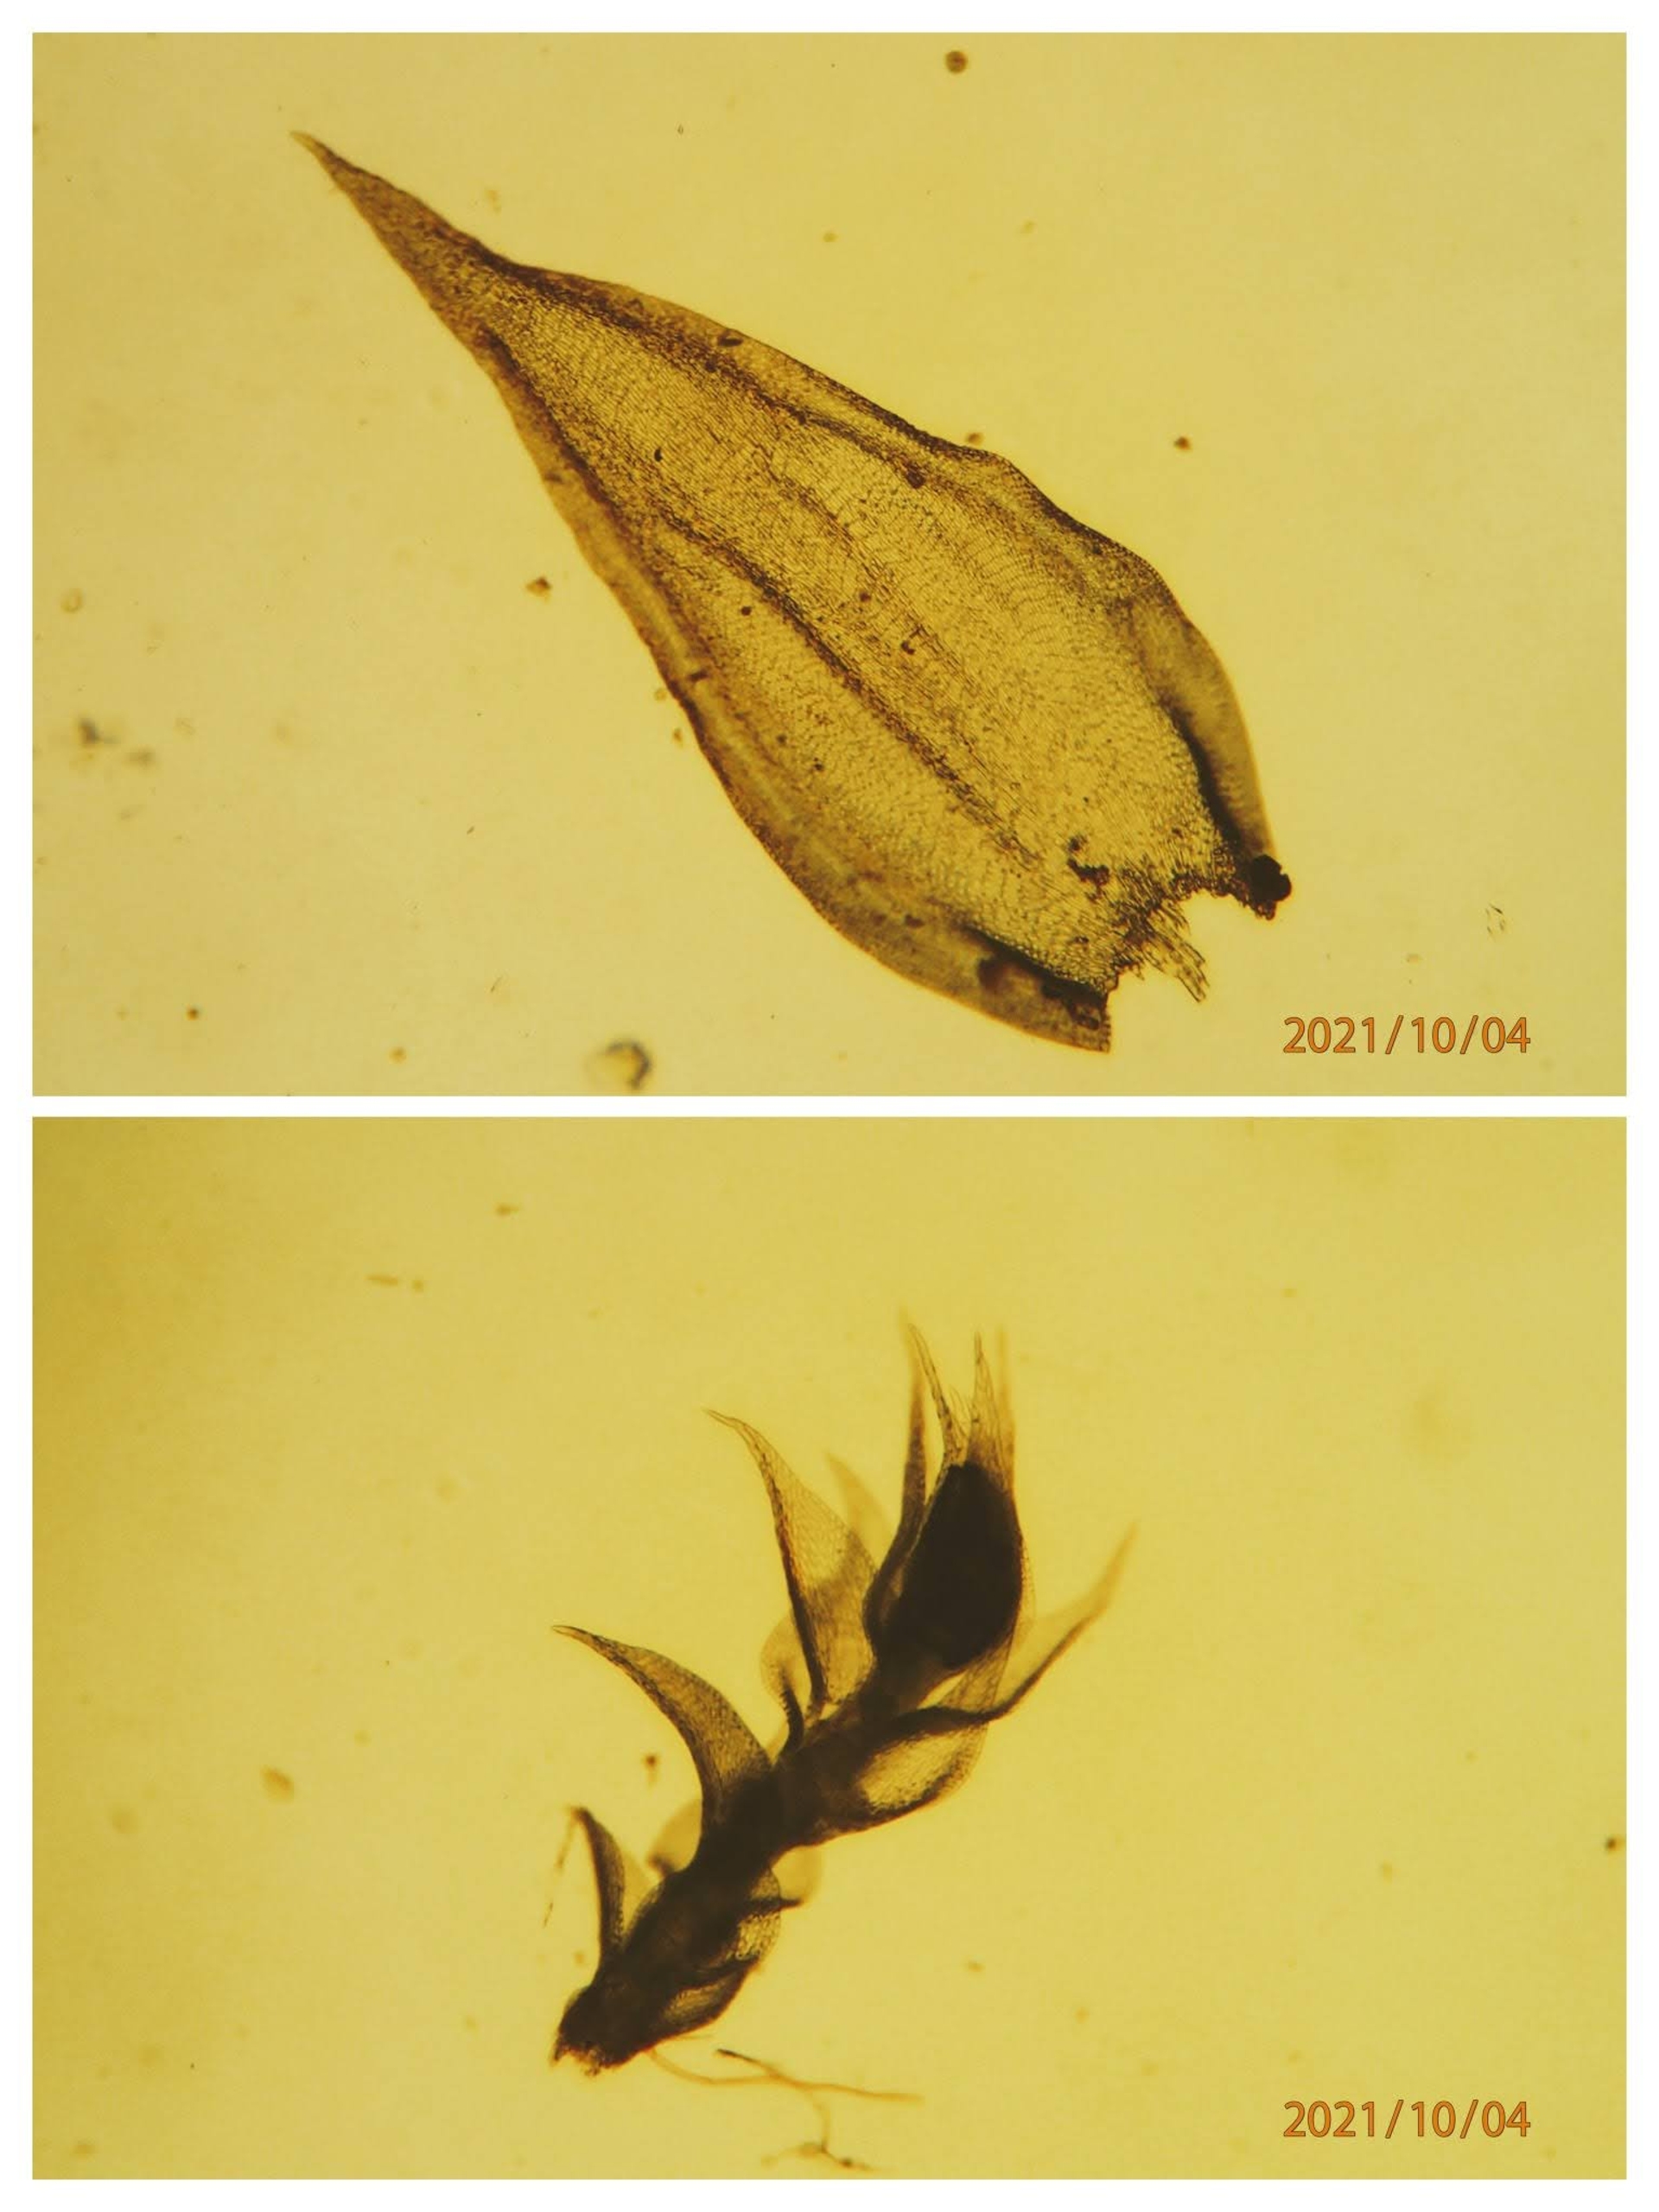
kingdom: Plantae
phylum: Bryophyta
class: Bryopsida
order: Hypnales
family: Leucodontaceae
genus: Leucodon
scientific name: Leucodon sciuroides
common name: Egernhale-buemos
